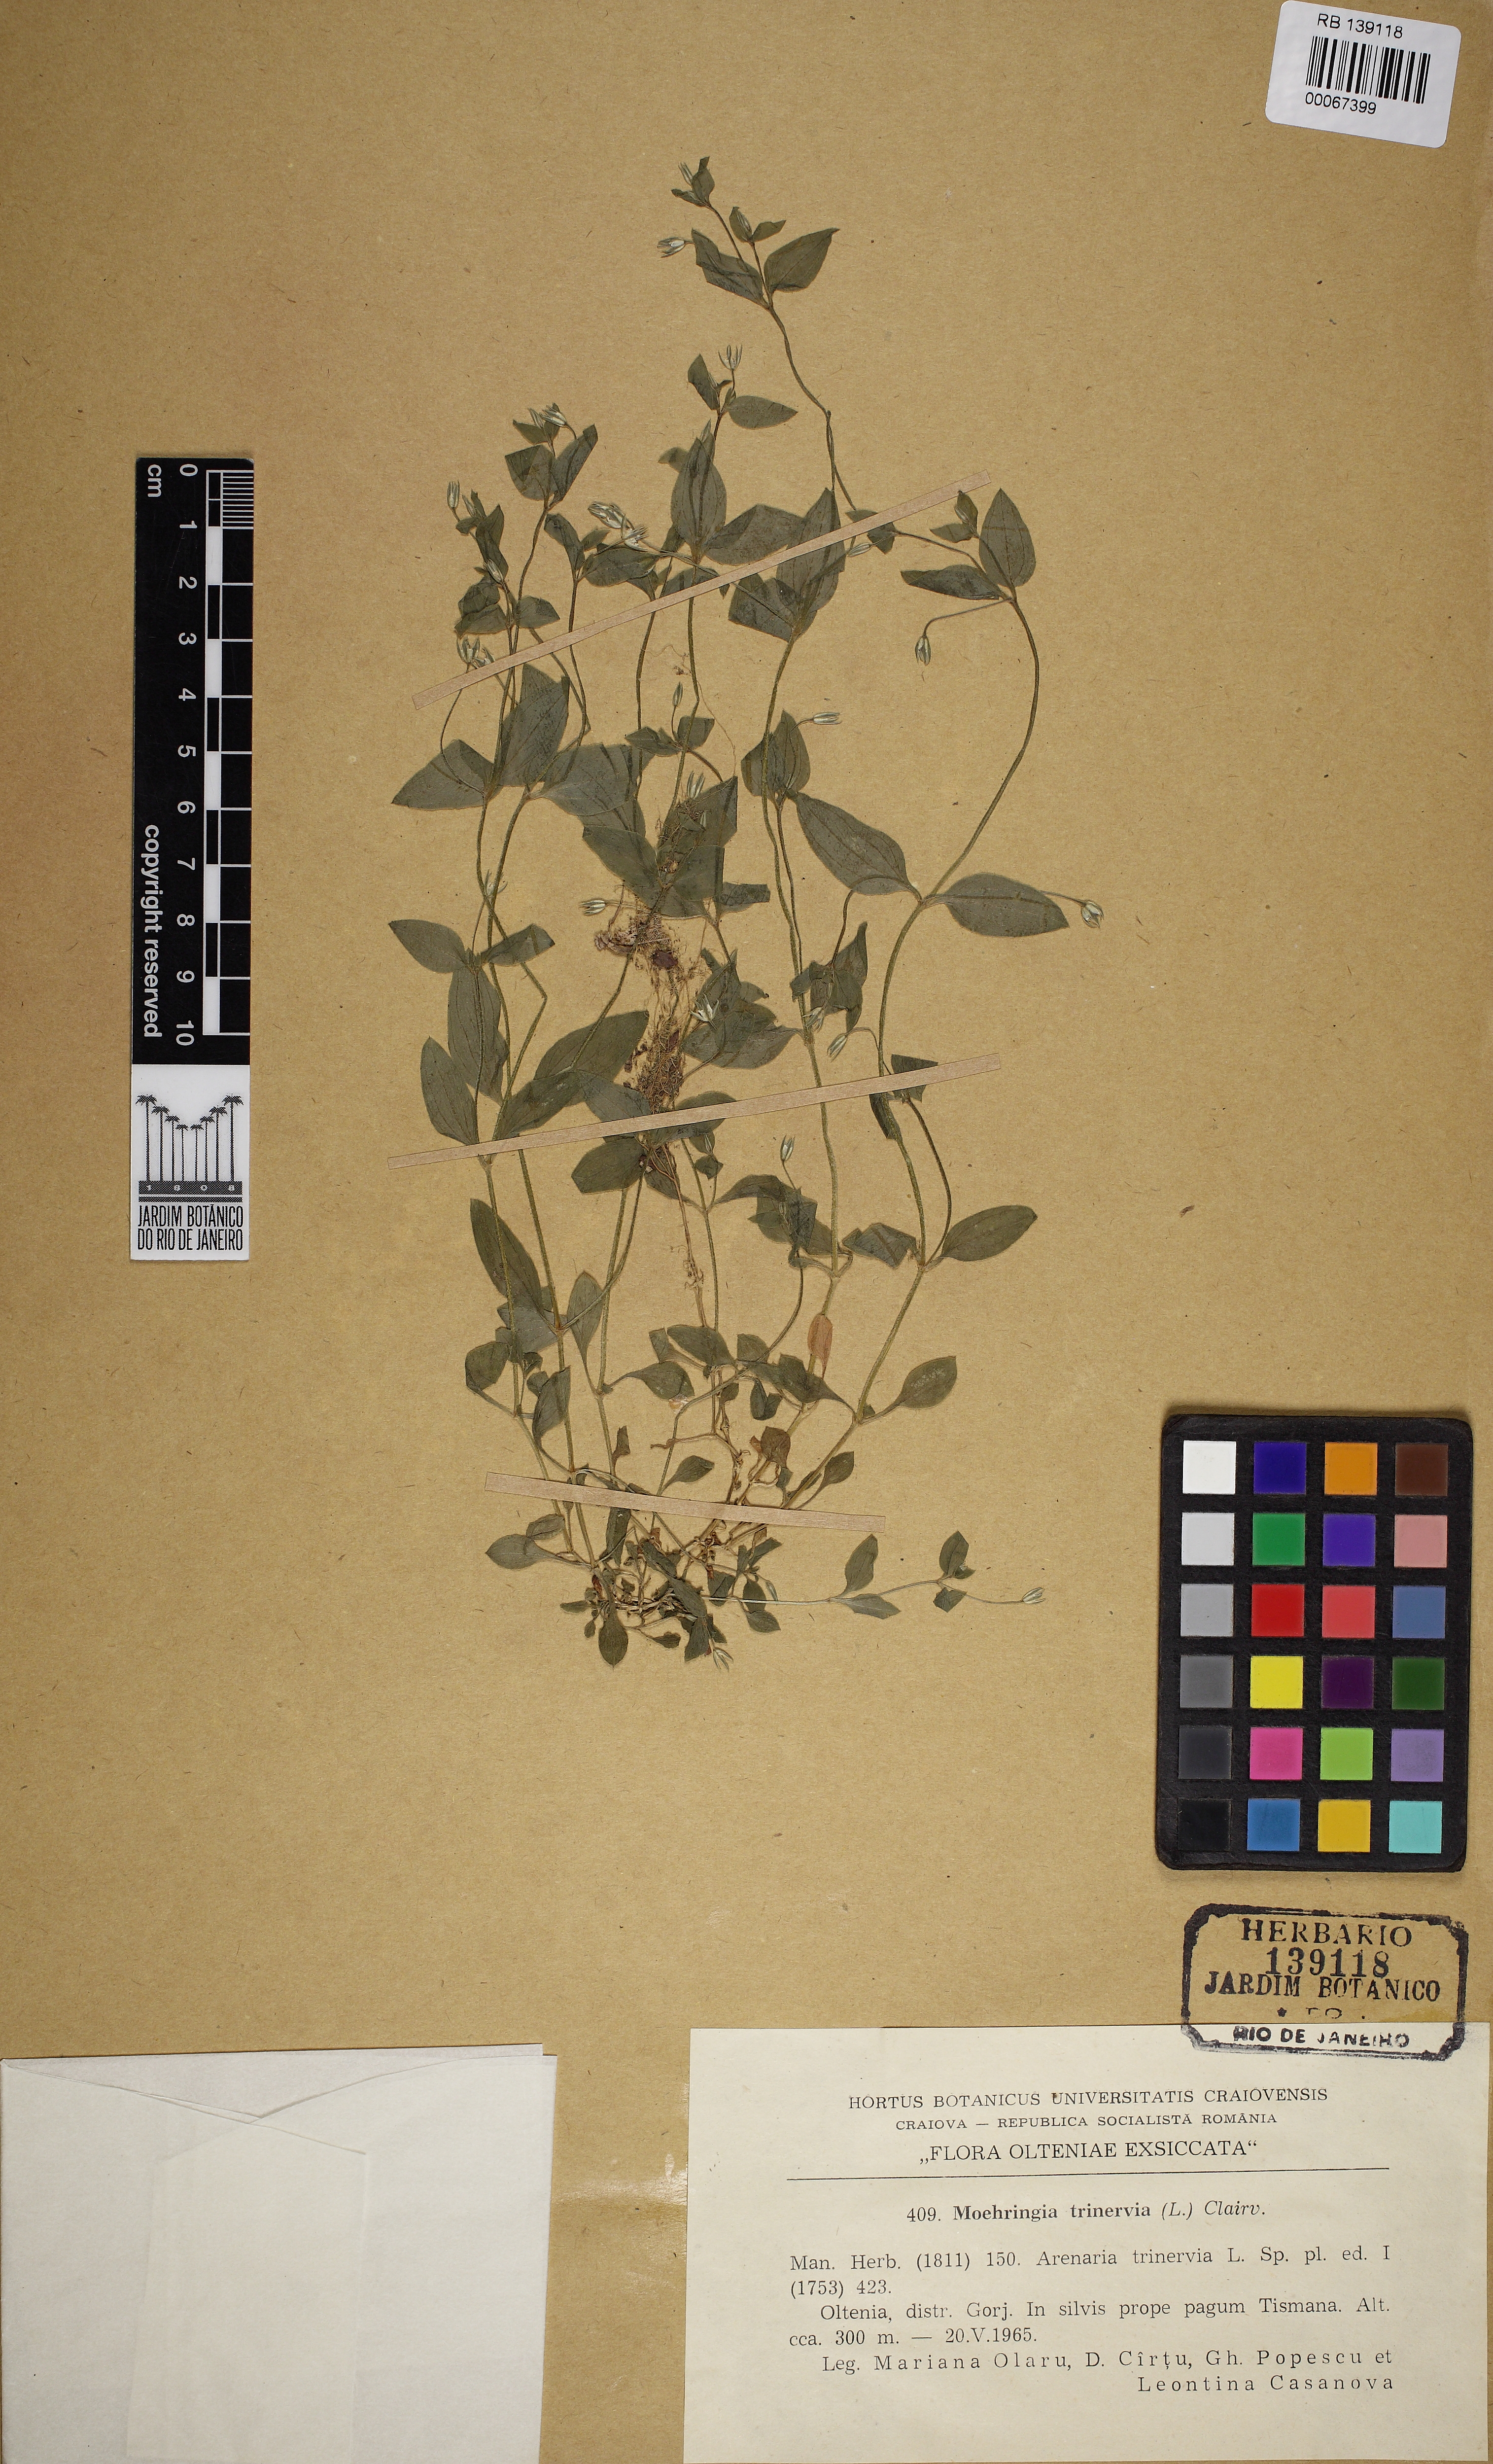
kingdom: Plantae
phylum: Tracheophyta
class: Magnoliopsida
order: Caryophyllales
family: Caryophyllaceae
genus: Moehringia
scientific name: Moehringia trinervia
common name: Three-nerved sandwort
